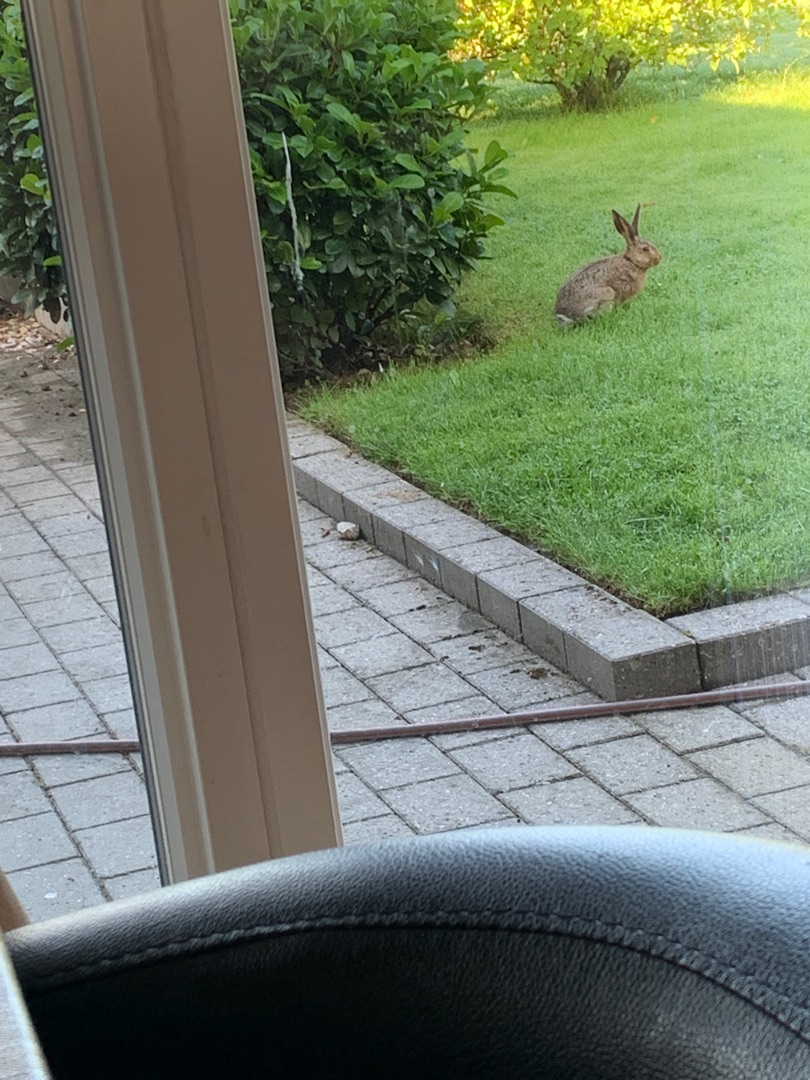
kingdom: Animalia
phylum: Chordata
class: Mammalia
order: Lagomorpha
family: Leporidae
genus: Lepus
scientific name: Lepus europaeus
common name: Hare
